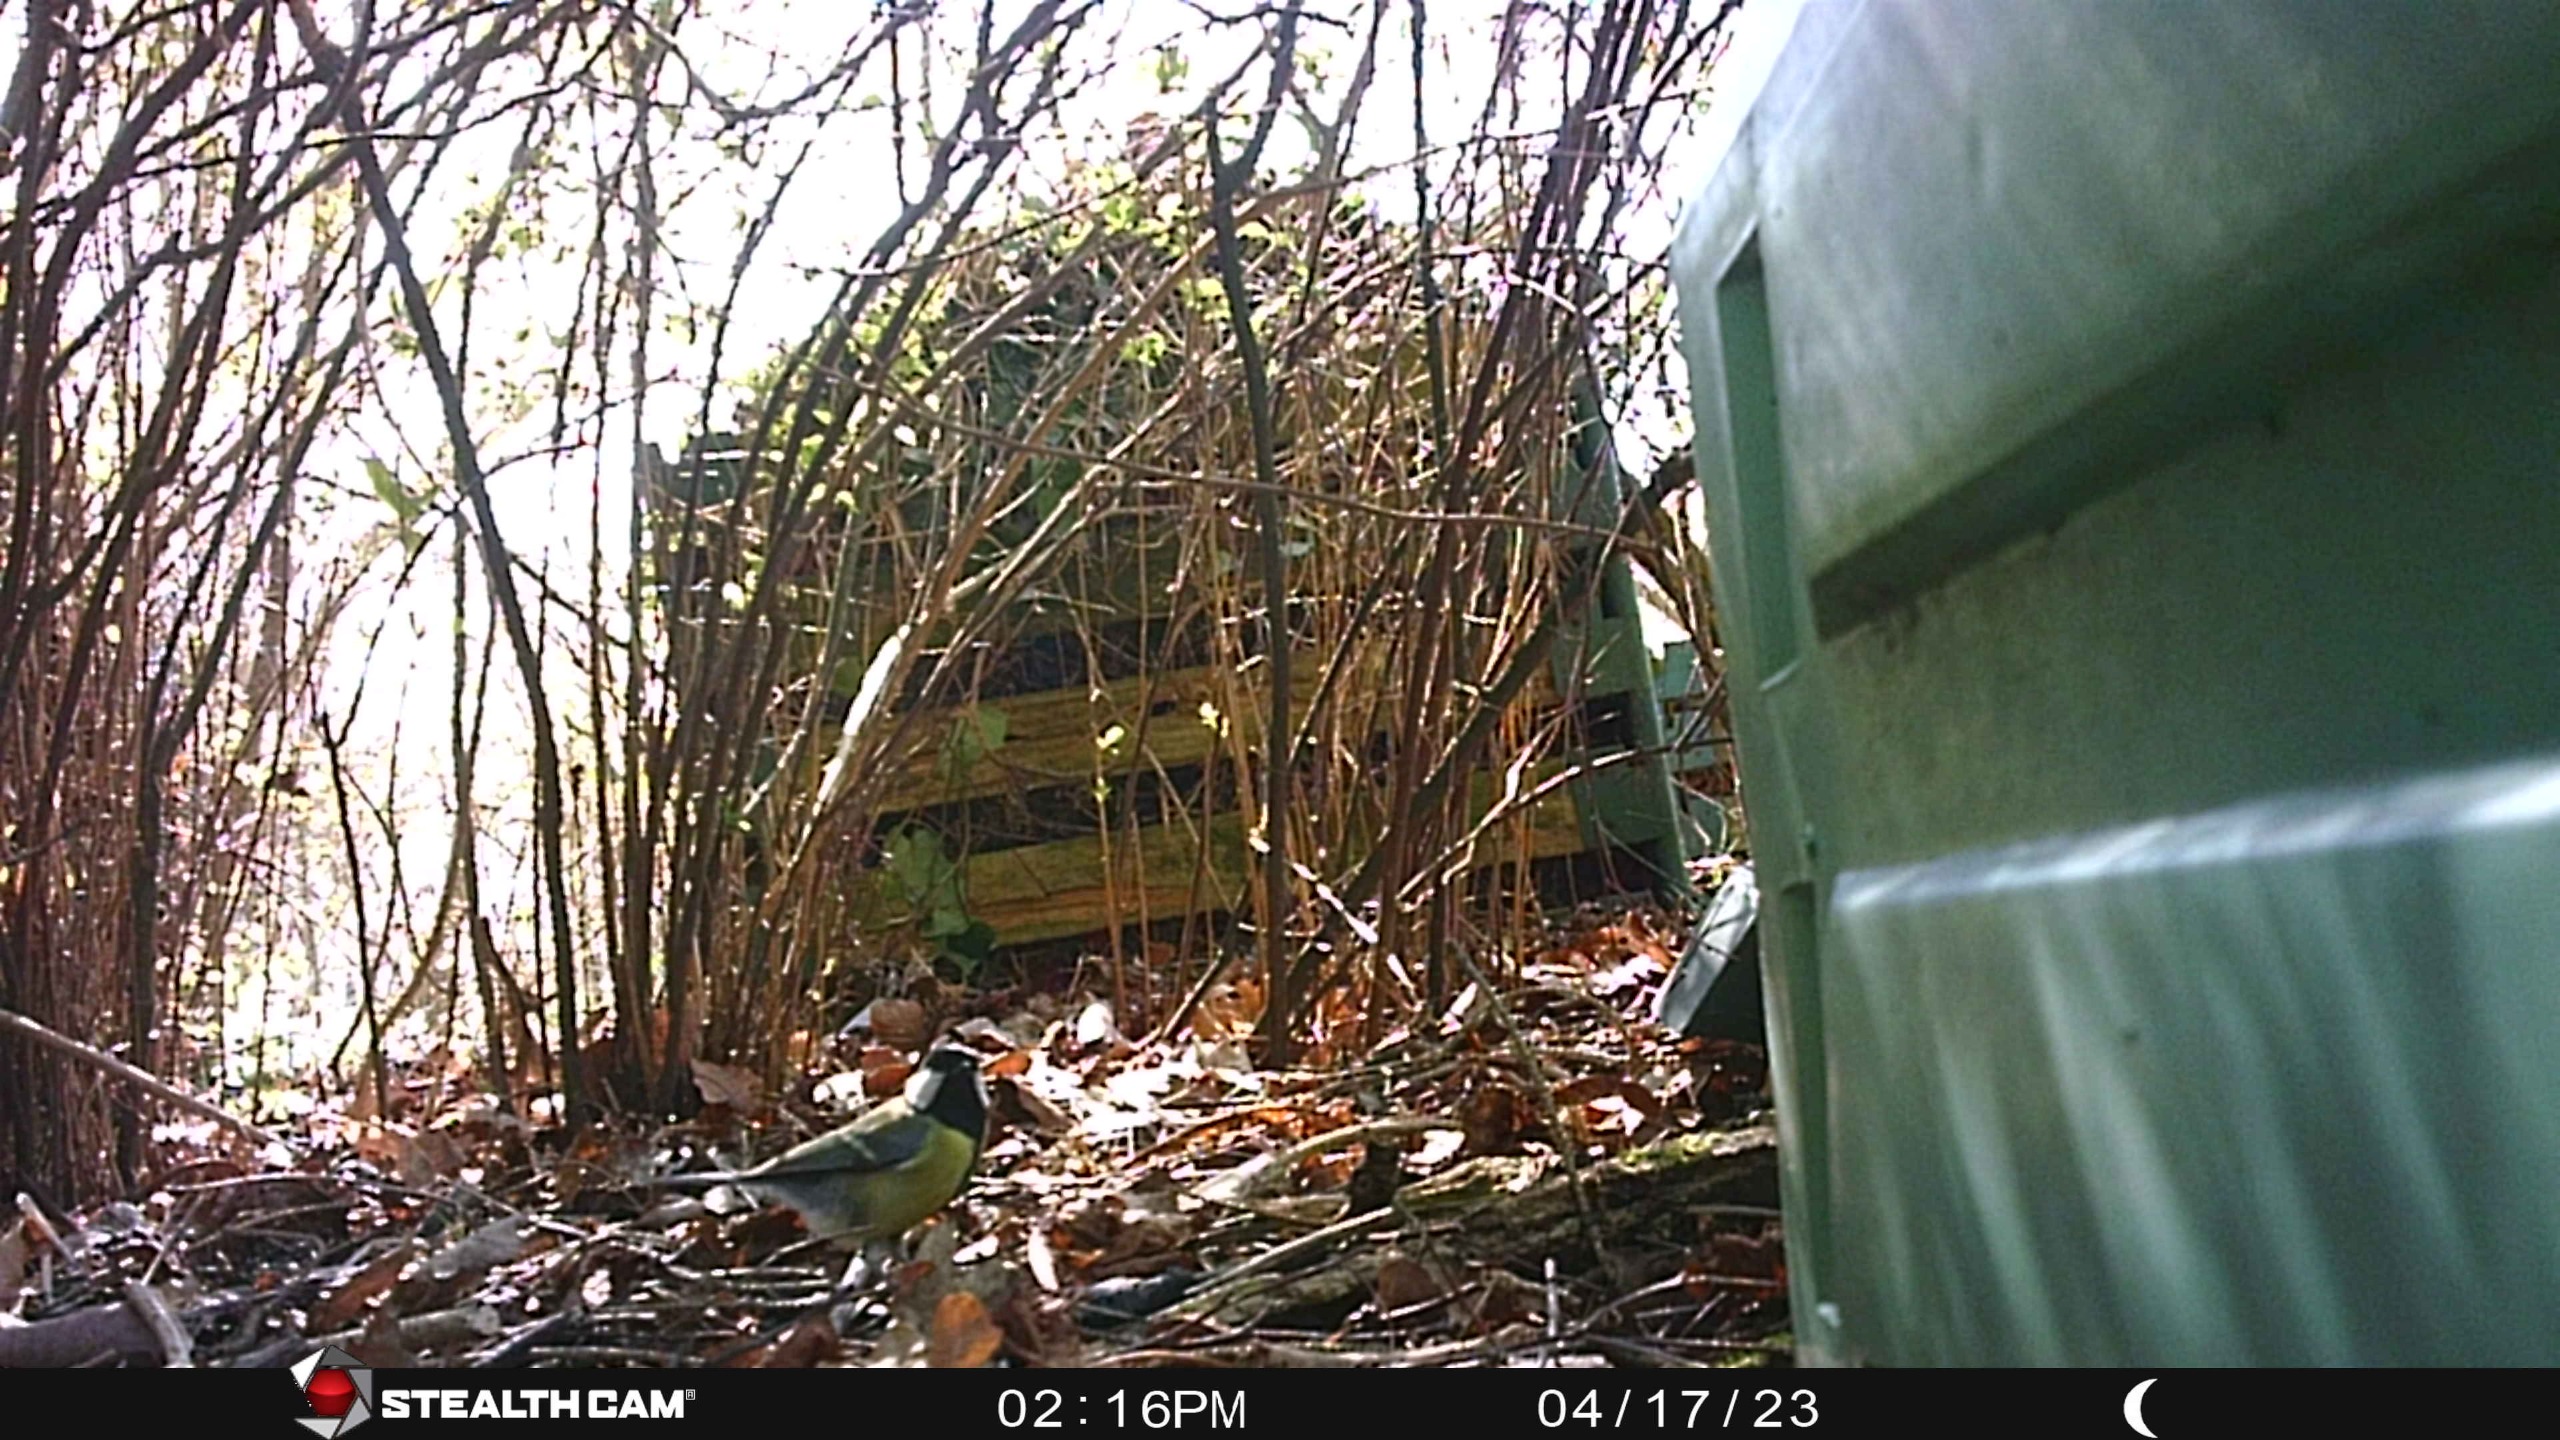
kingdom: Animalia
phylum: Chordata
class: Aves
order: Passeriformes
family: Paridae
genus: Parus
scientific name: Parus major
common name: Musvit
